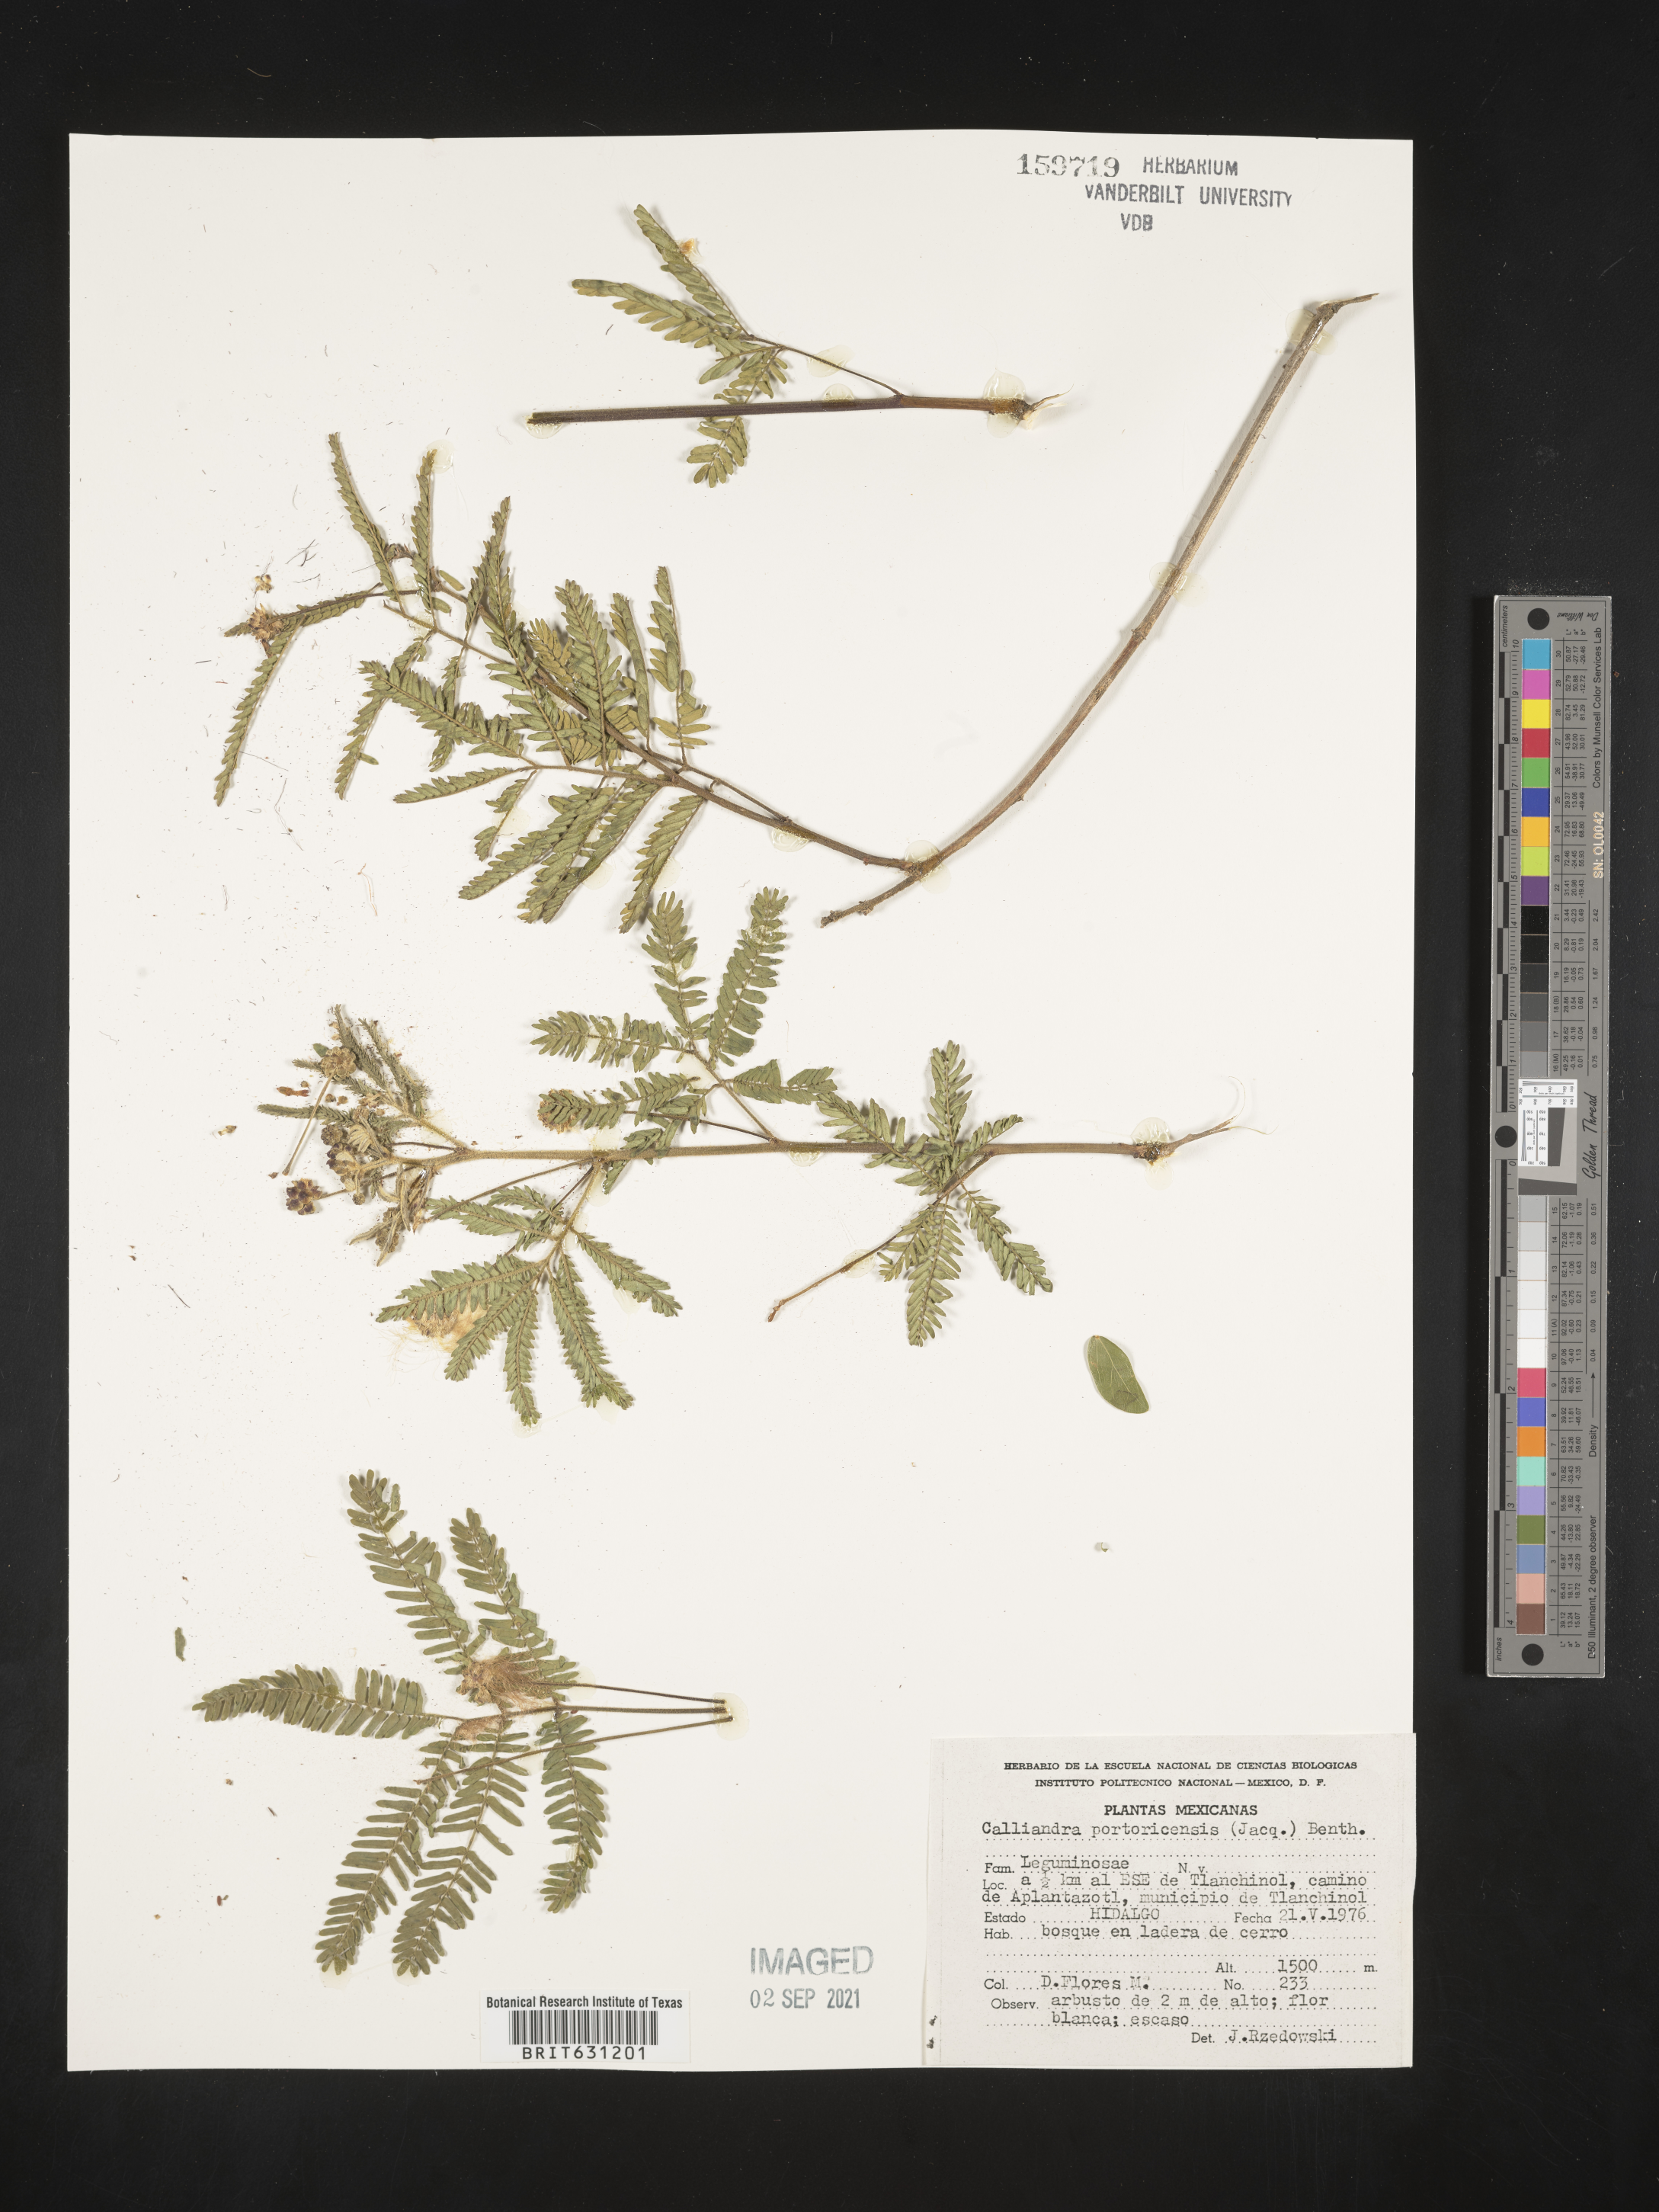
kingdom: Plantae
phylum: Tracheophyta
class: Magnoliopsida
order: Fabales
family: Fabaceae
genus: Zapoteca
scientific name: Zapoteca portoricensis
